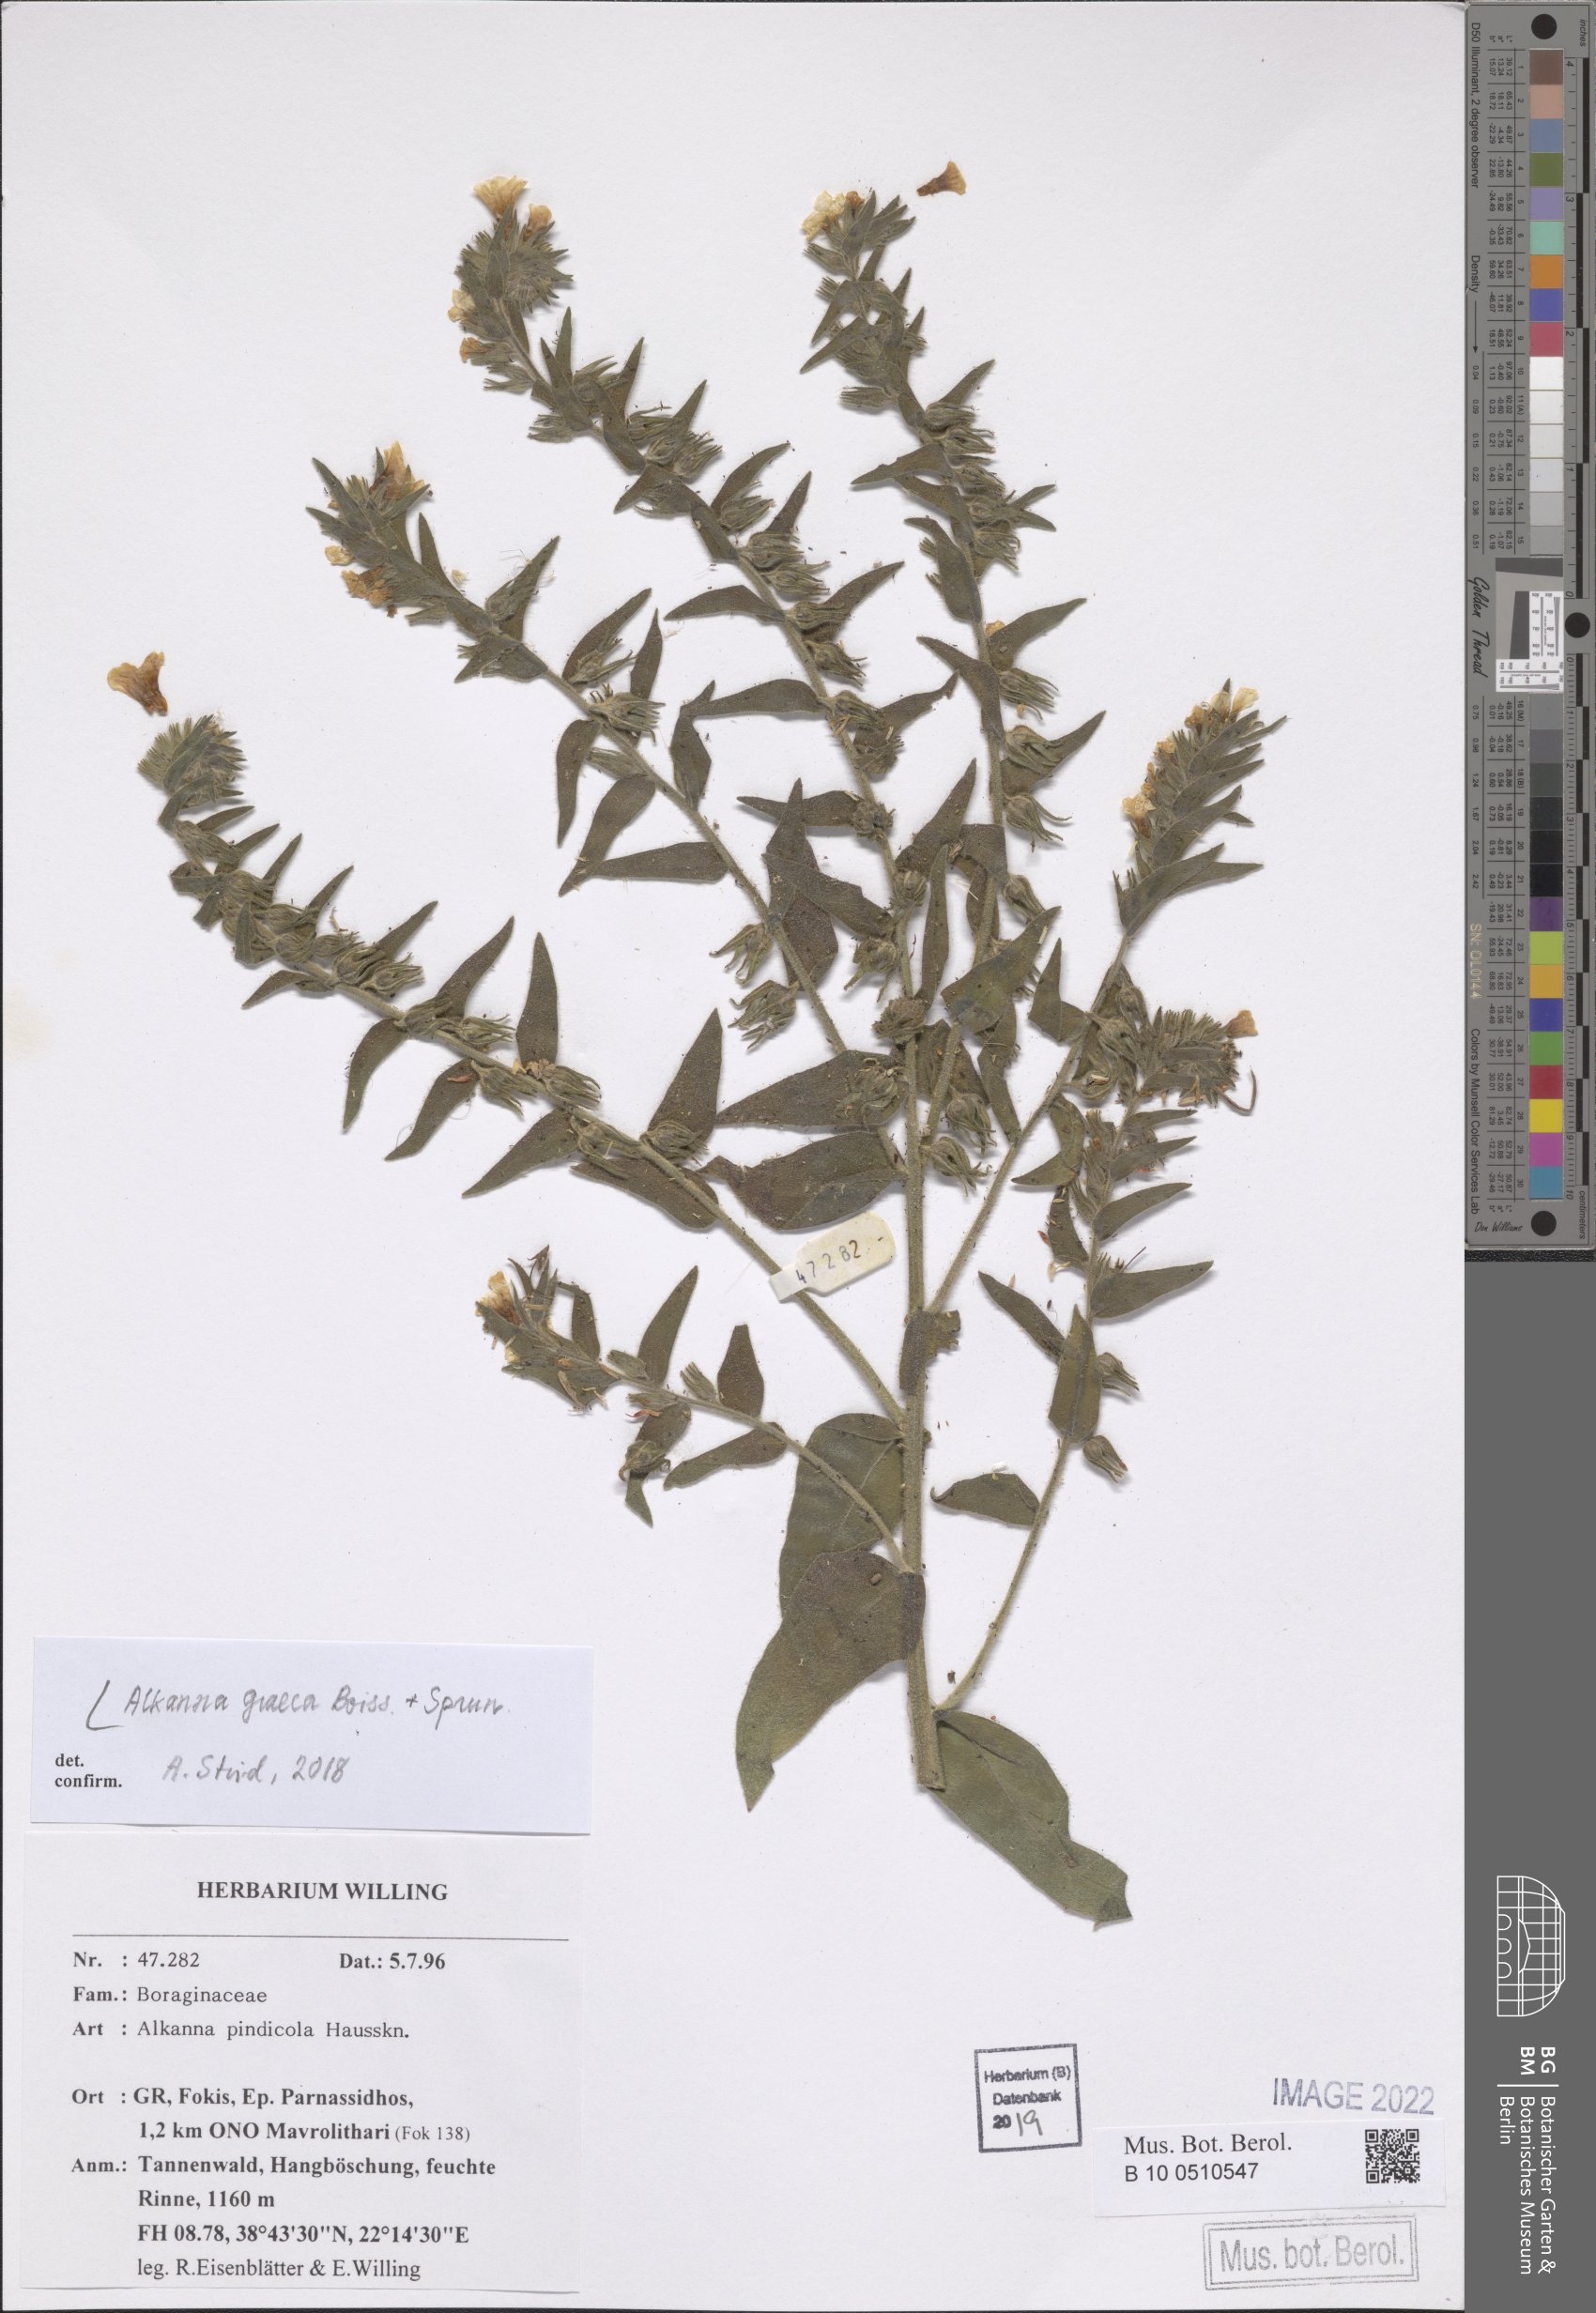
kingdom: Plantae
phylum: Tracheophyta
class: Magnoliopsida
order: Boraginales
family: Boraginaceae
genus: Alkanna
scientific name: Alkanna graeca
